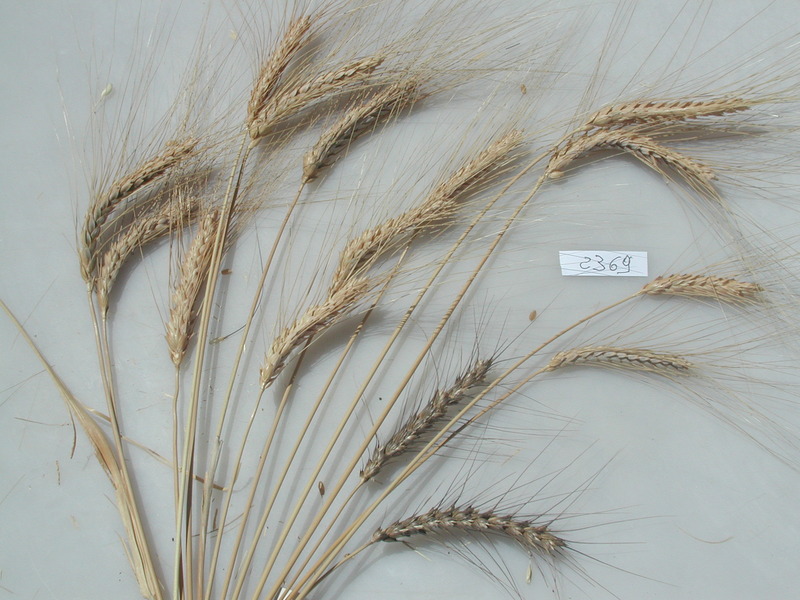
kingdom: Plantae
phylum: Tracheophyta
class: Liliopsida
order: Poales
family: Poaceae
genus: Triticum
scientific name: Triticum turgidum
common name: Wheat
